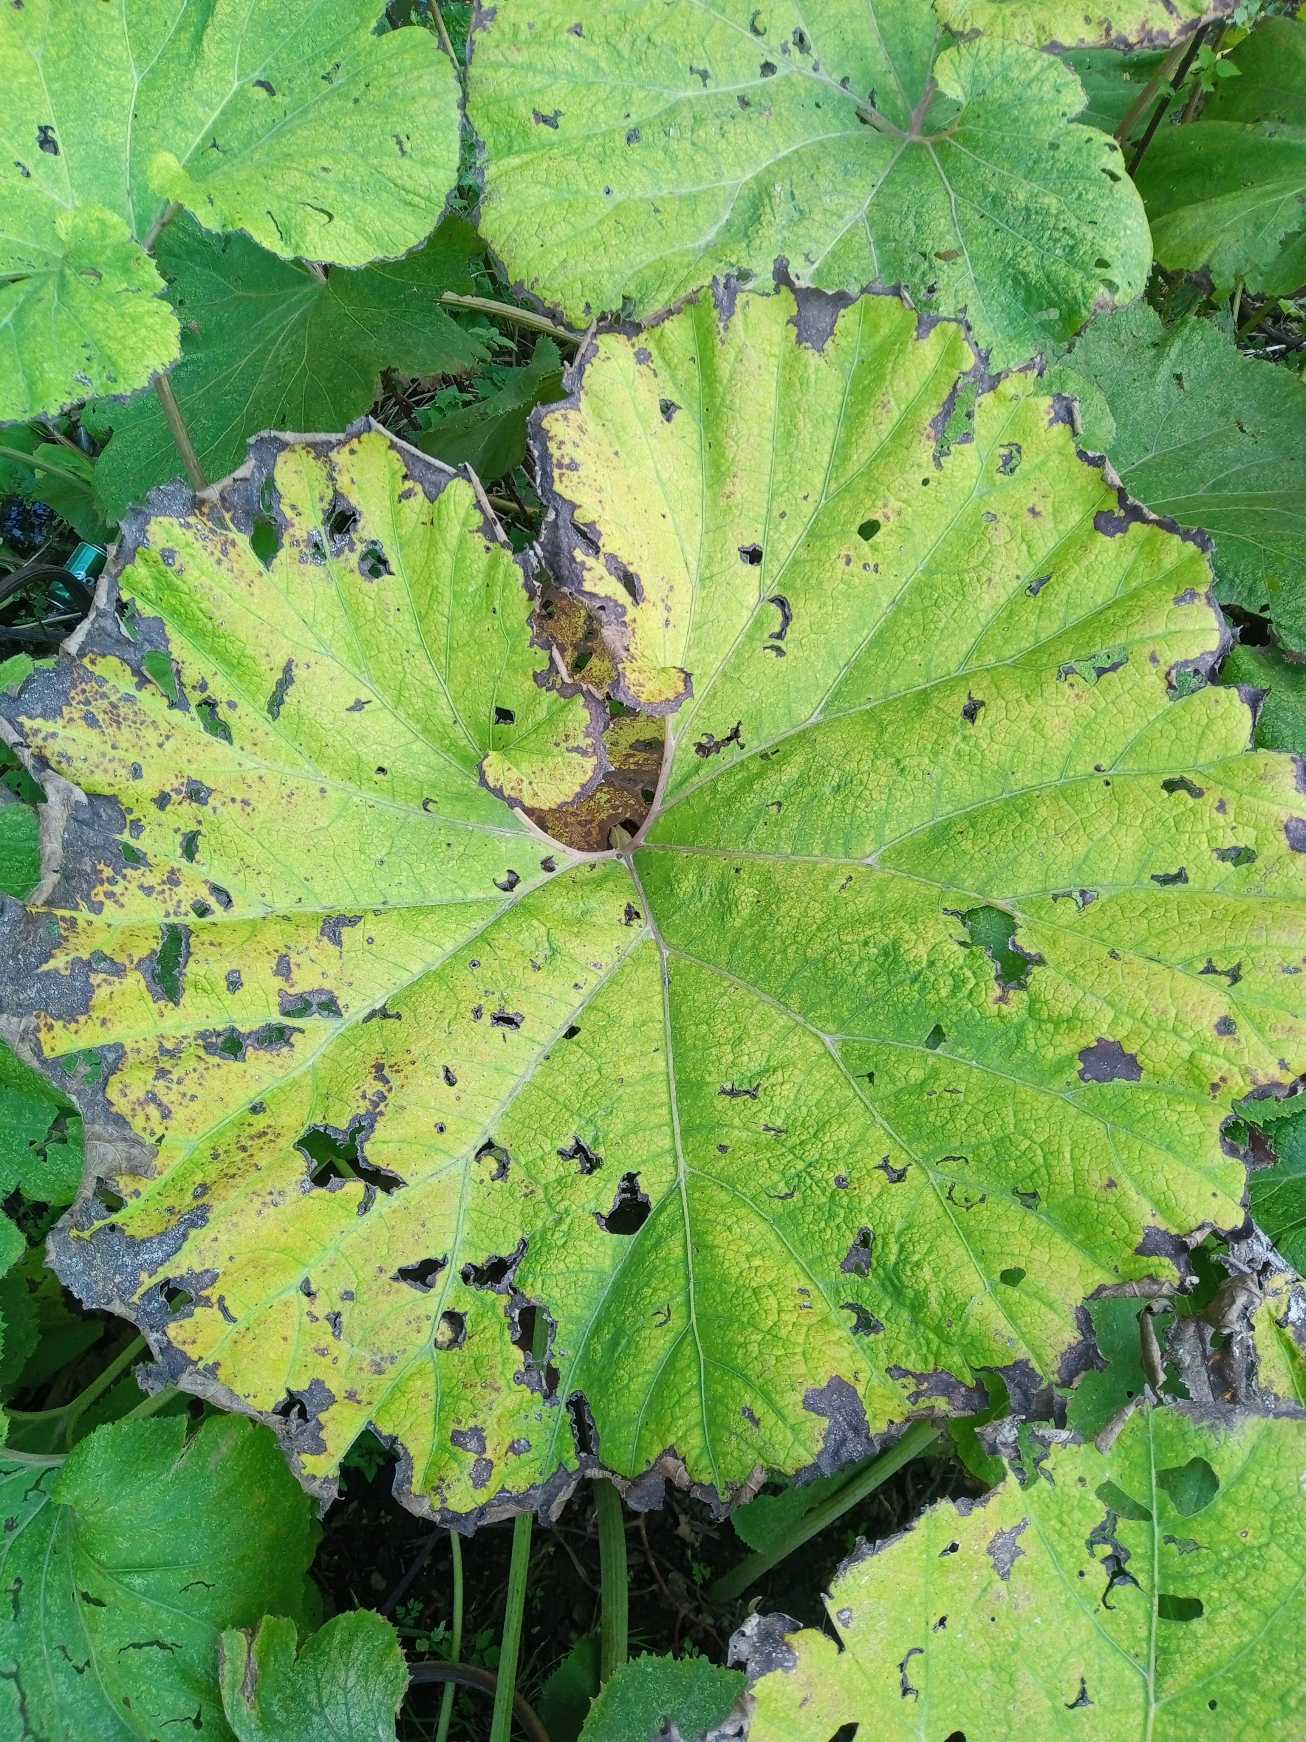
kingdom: Plantae
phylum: Tracheophyta
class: Magnoliopsida
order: Asterales
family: Asteraceae
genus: Petasites
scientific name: Petasites japonicus
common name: Japansk hestehov
